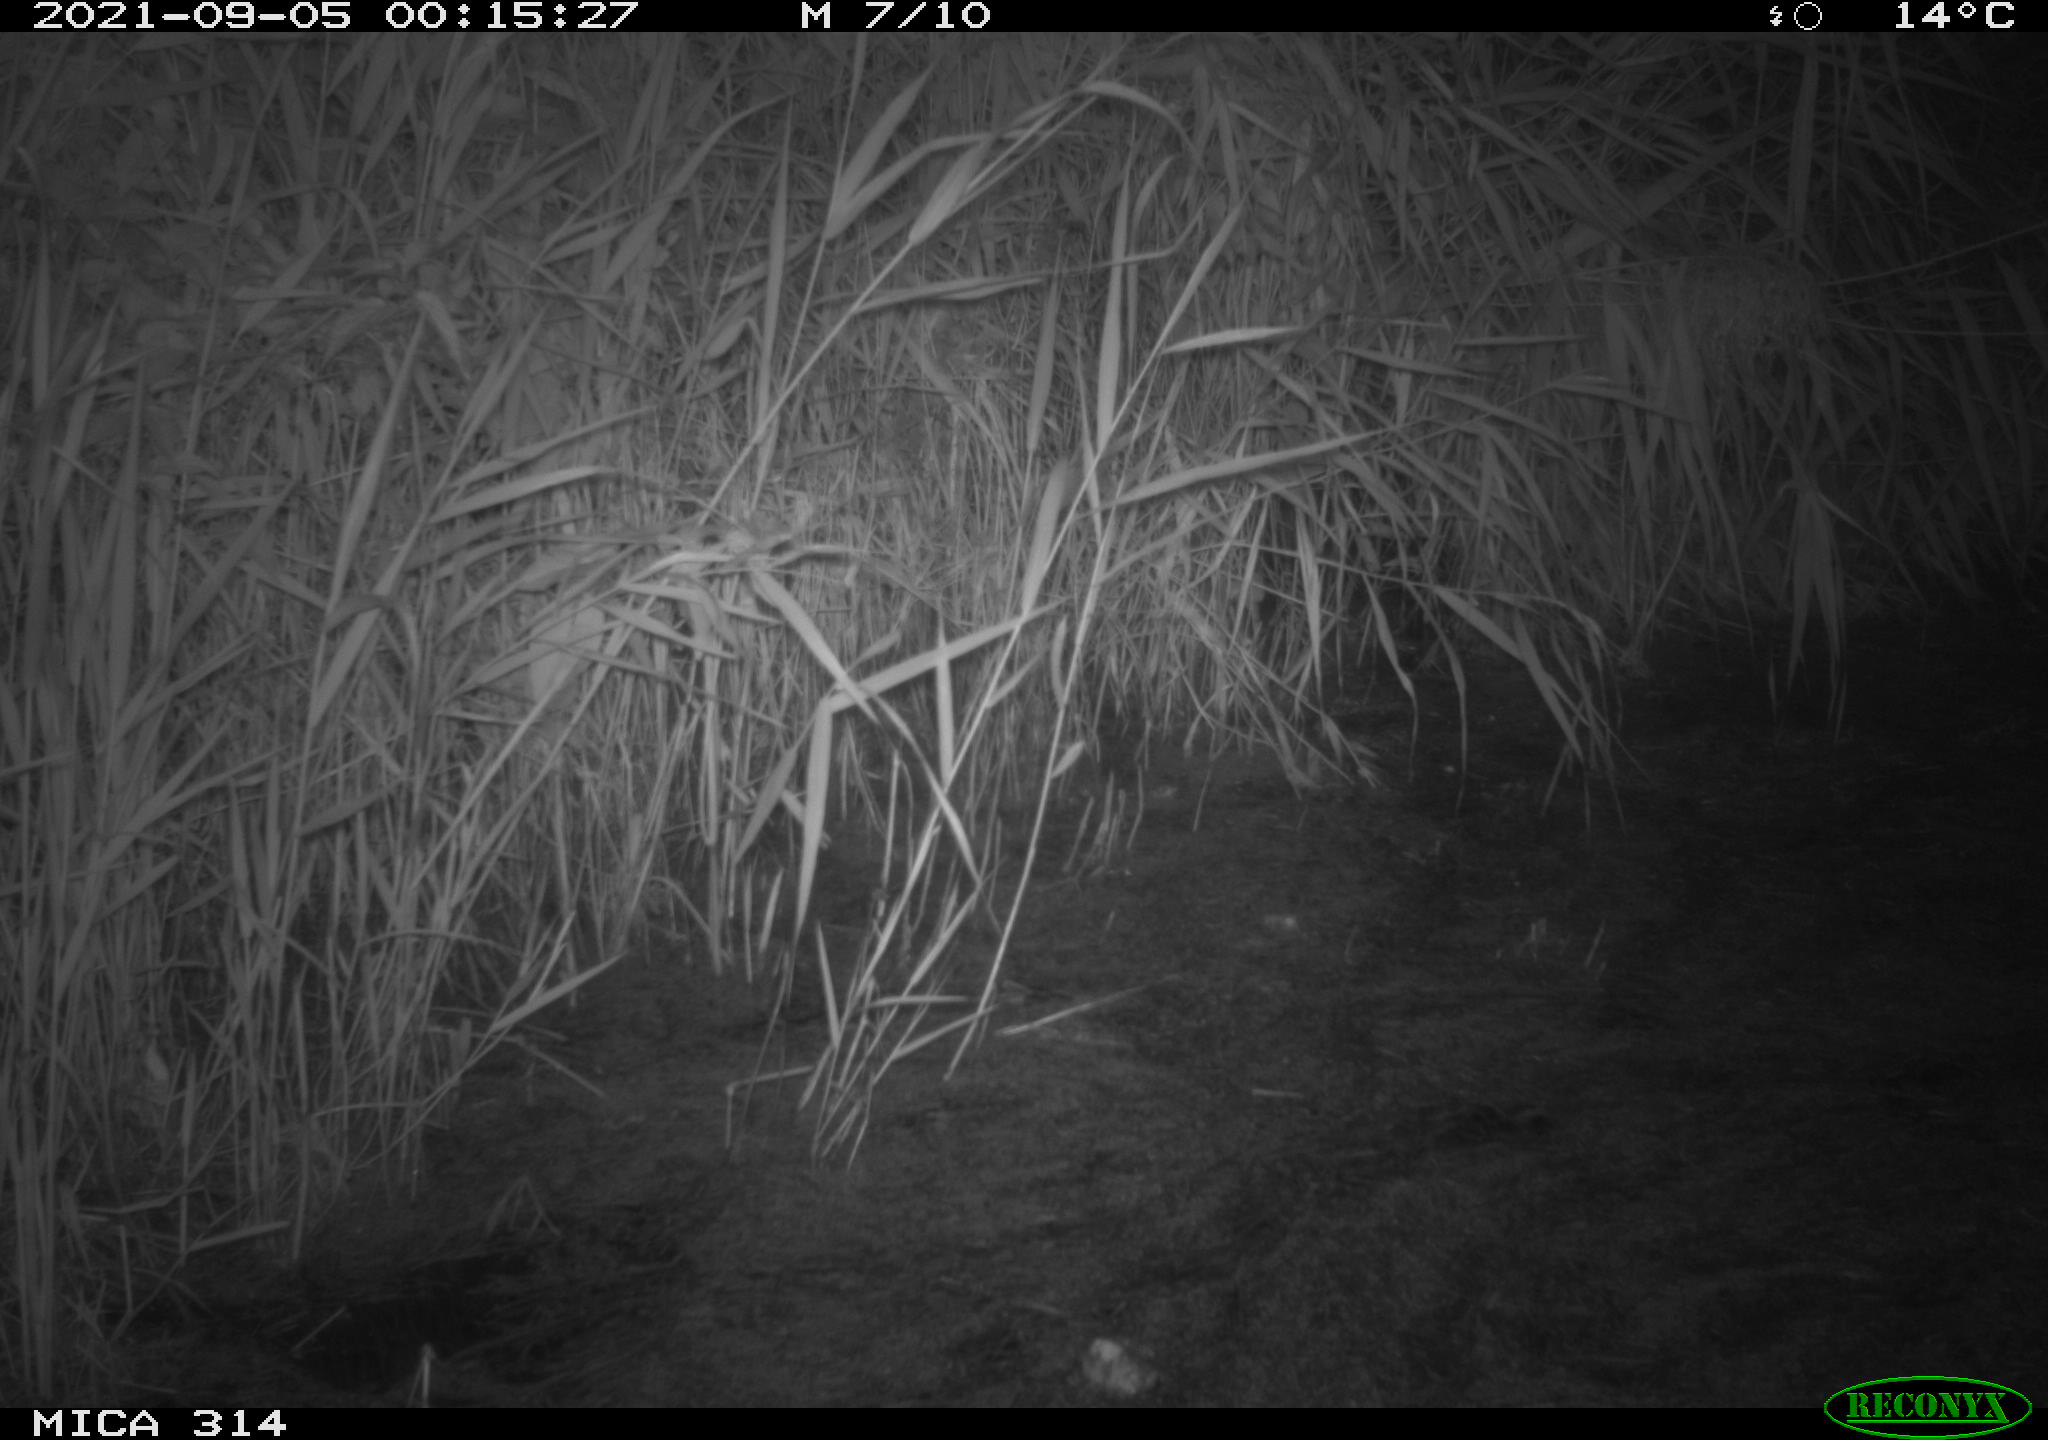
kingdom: Animalia
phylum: Chordata
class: Mammalia
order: Rodentia
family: Muridae
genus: Rattus
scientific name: Rattus norvegicus
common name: Brown rat
